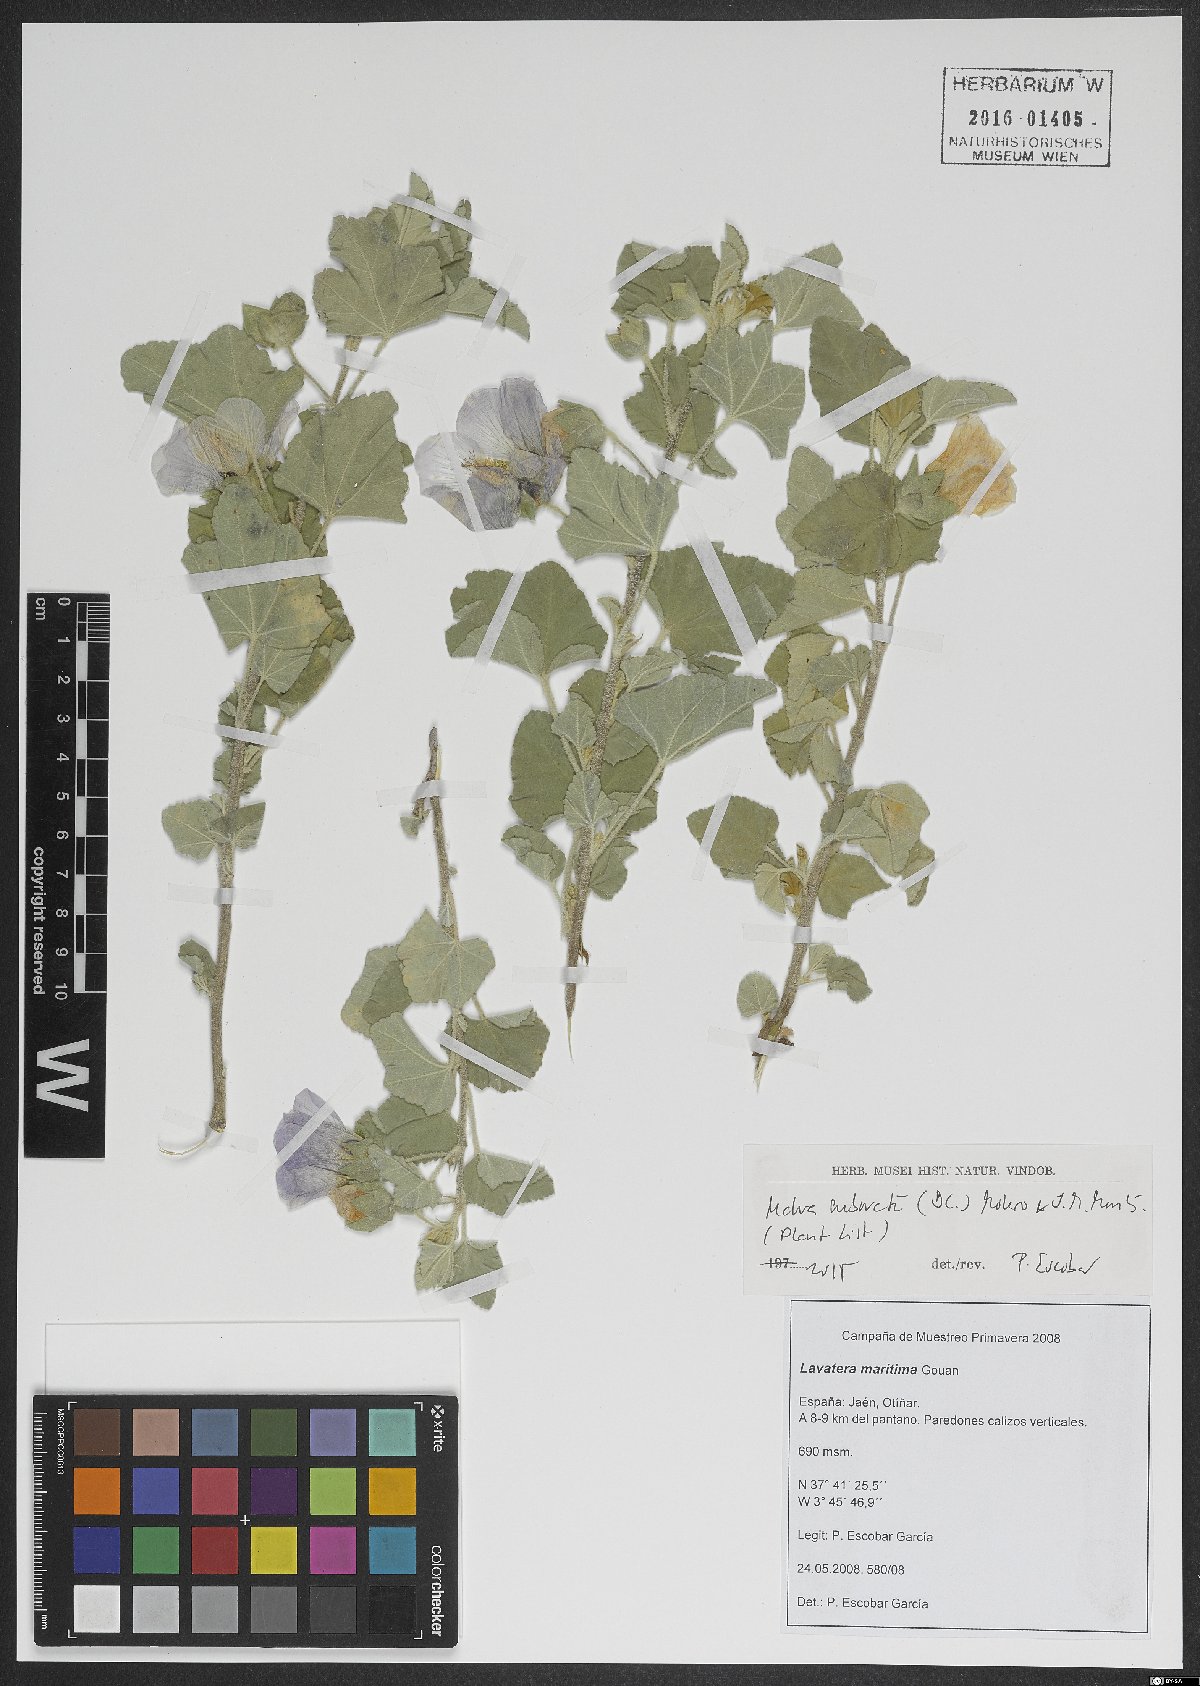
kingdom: Plantae
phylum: Tracheophyta
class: Magnoliopsida
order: Malvales
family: Malvaceae
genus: Malva
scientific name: Malva subovata
